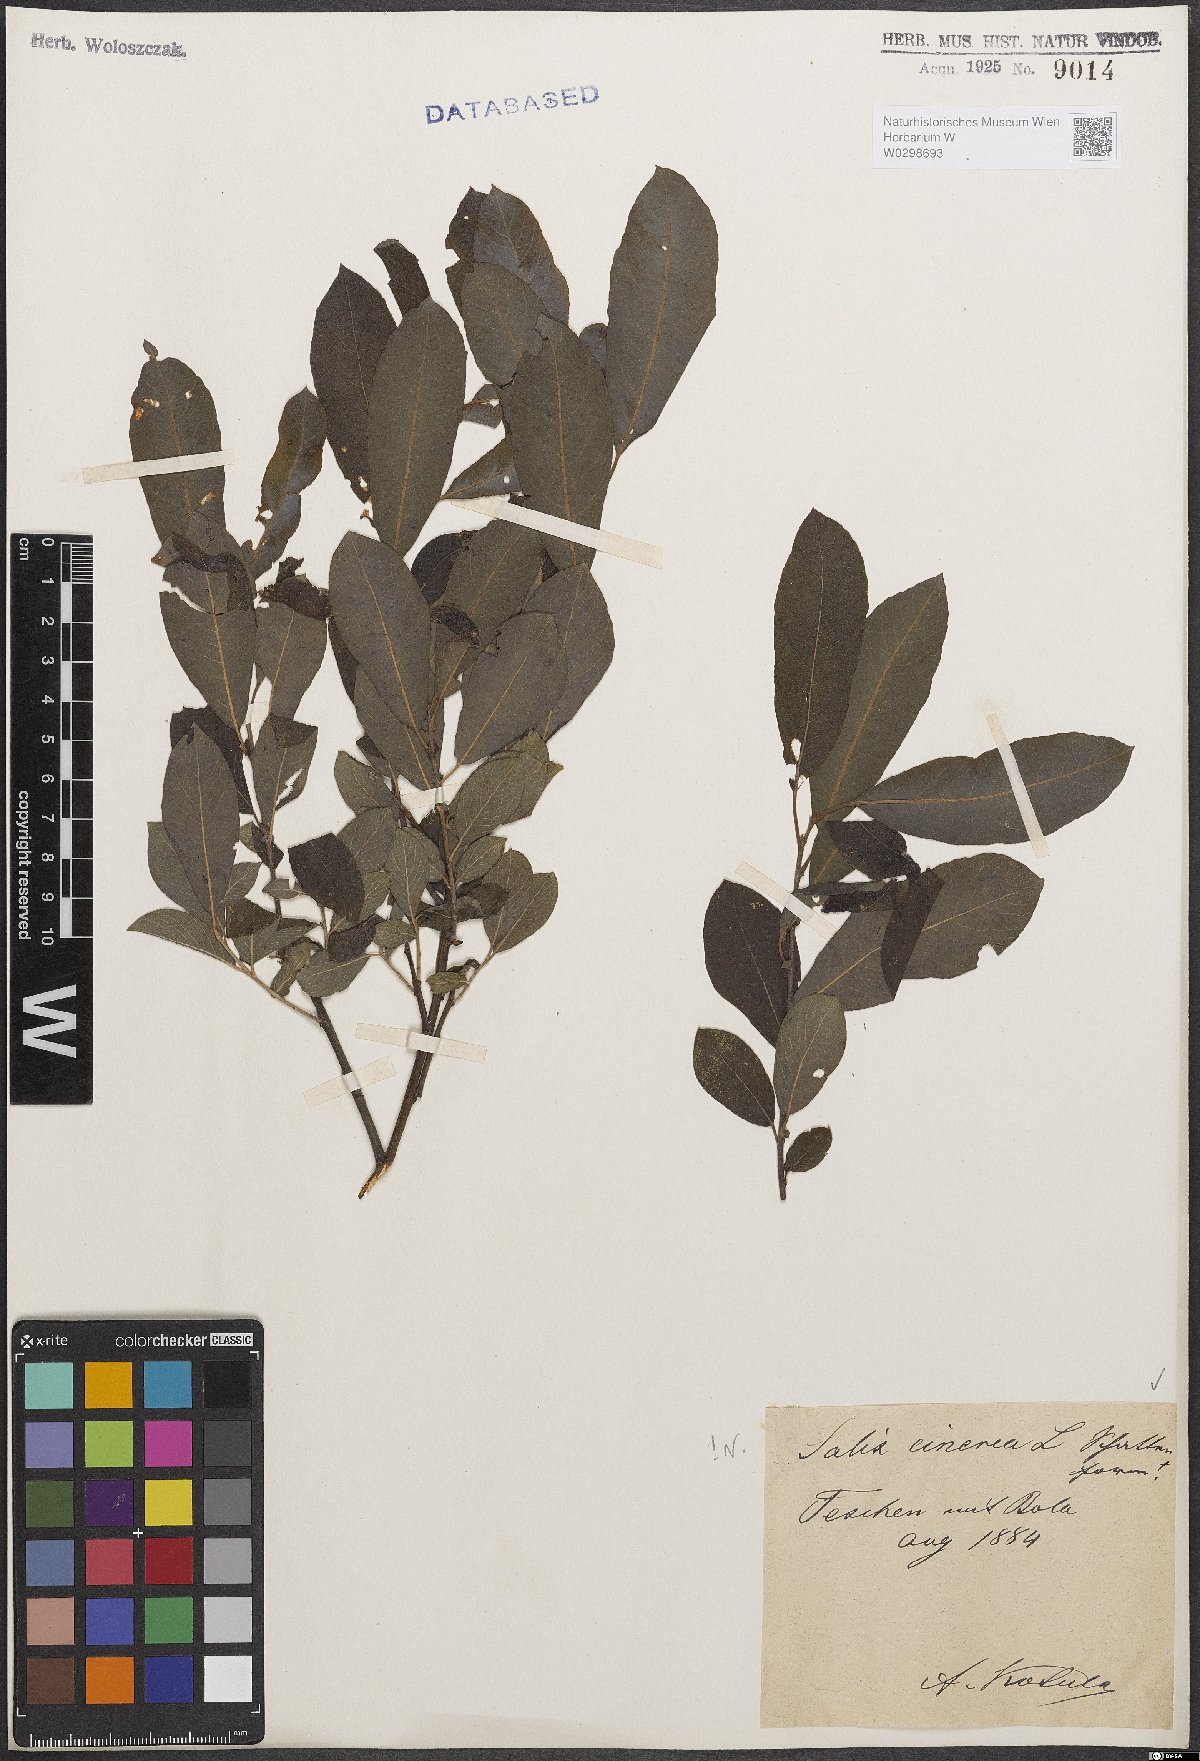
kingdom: Plantae
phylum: Tracheophyta
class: Magnoliopsida
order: Malpighiales
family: Salicaceae
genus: Salix
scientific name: Salix cinerea
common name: Common sallow
